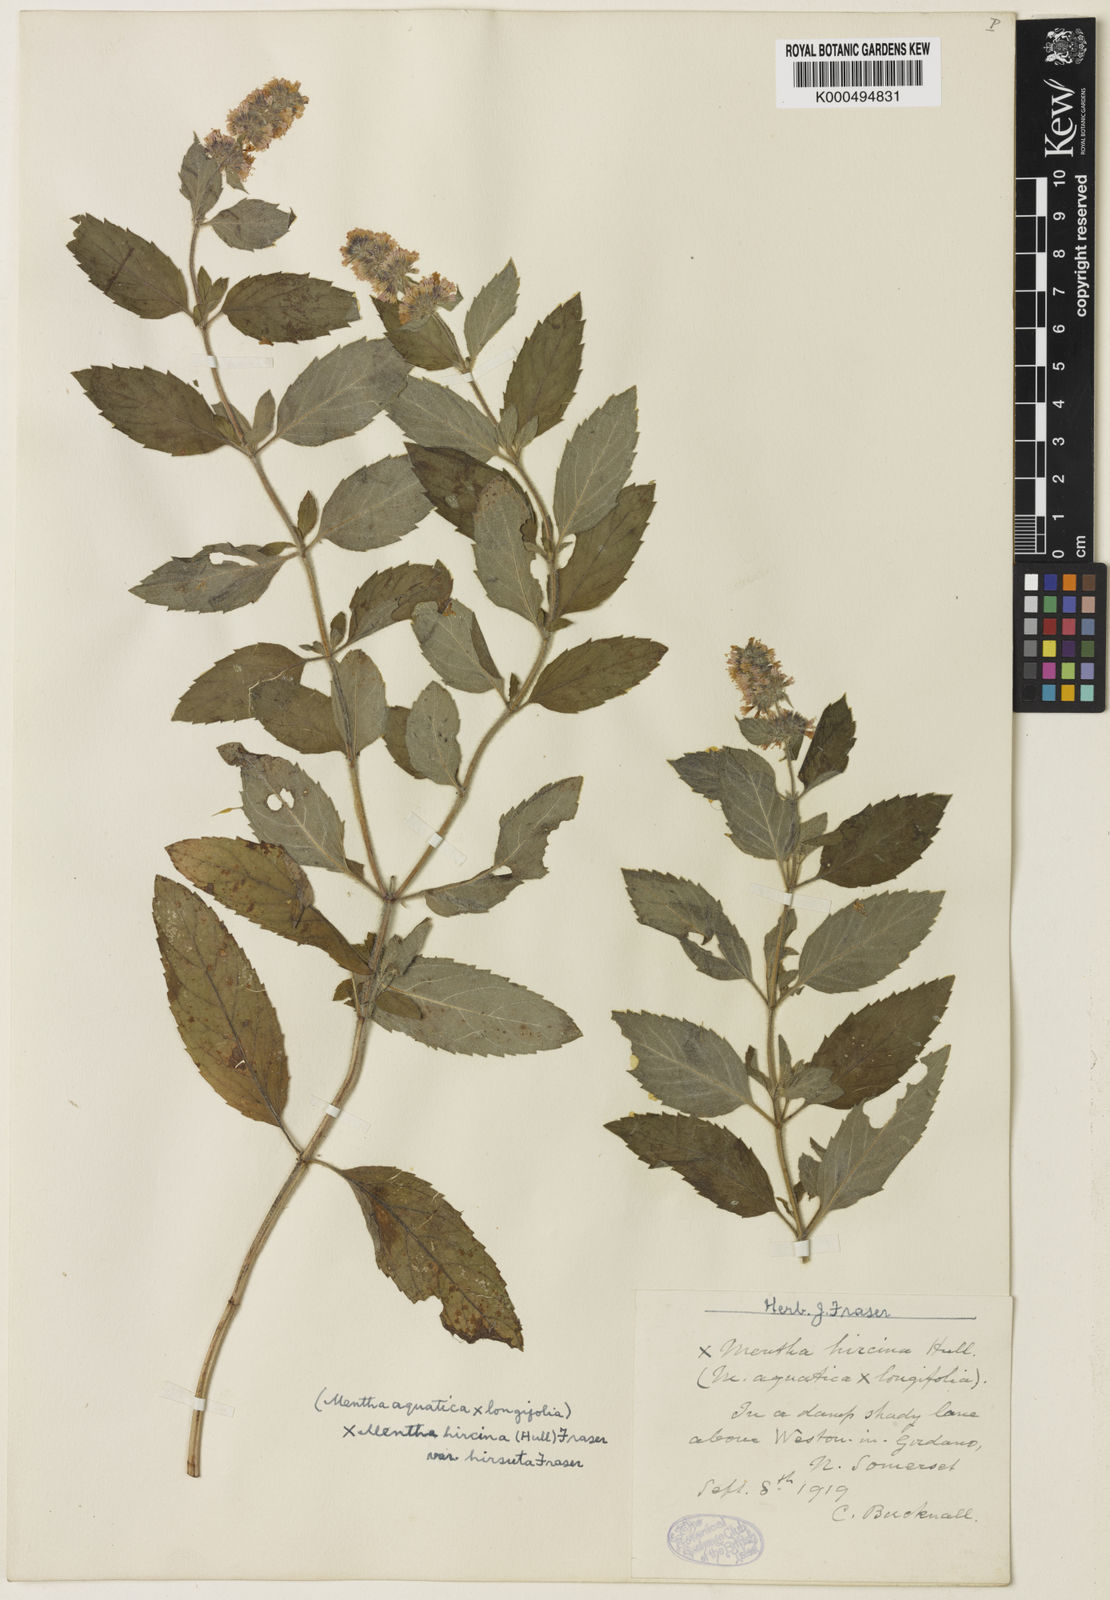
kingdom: Plantae
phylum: Tracheophyta
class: Magnoliopsida
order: Lamiales
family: Lamiaceae
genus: Mentha
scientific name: Mentha piperita
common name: Peppermint
